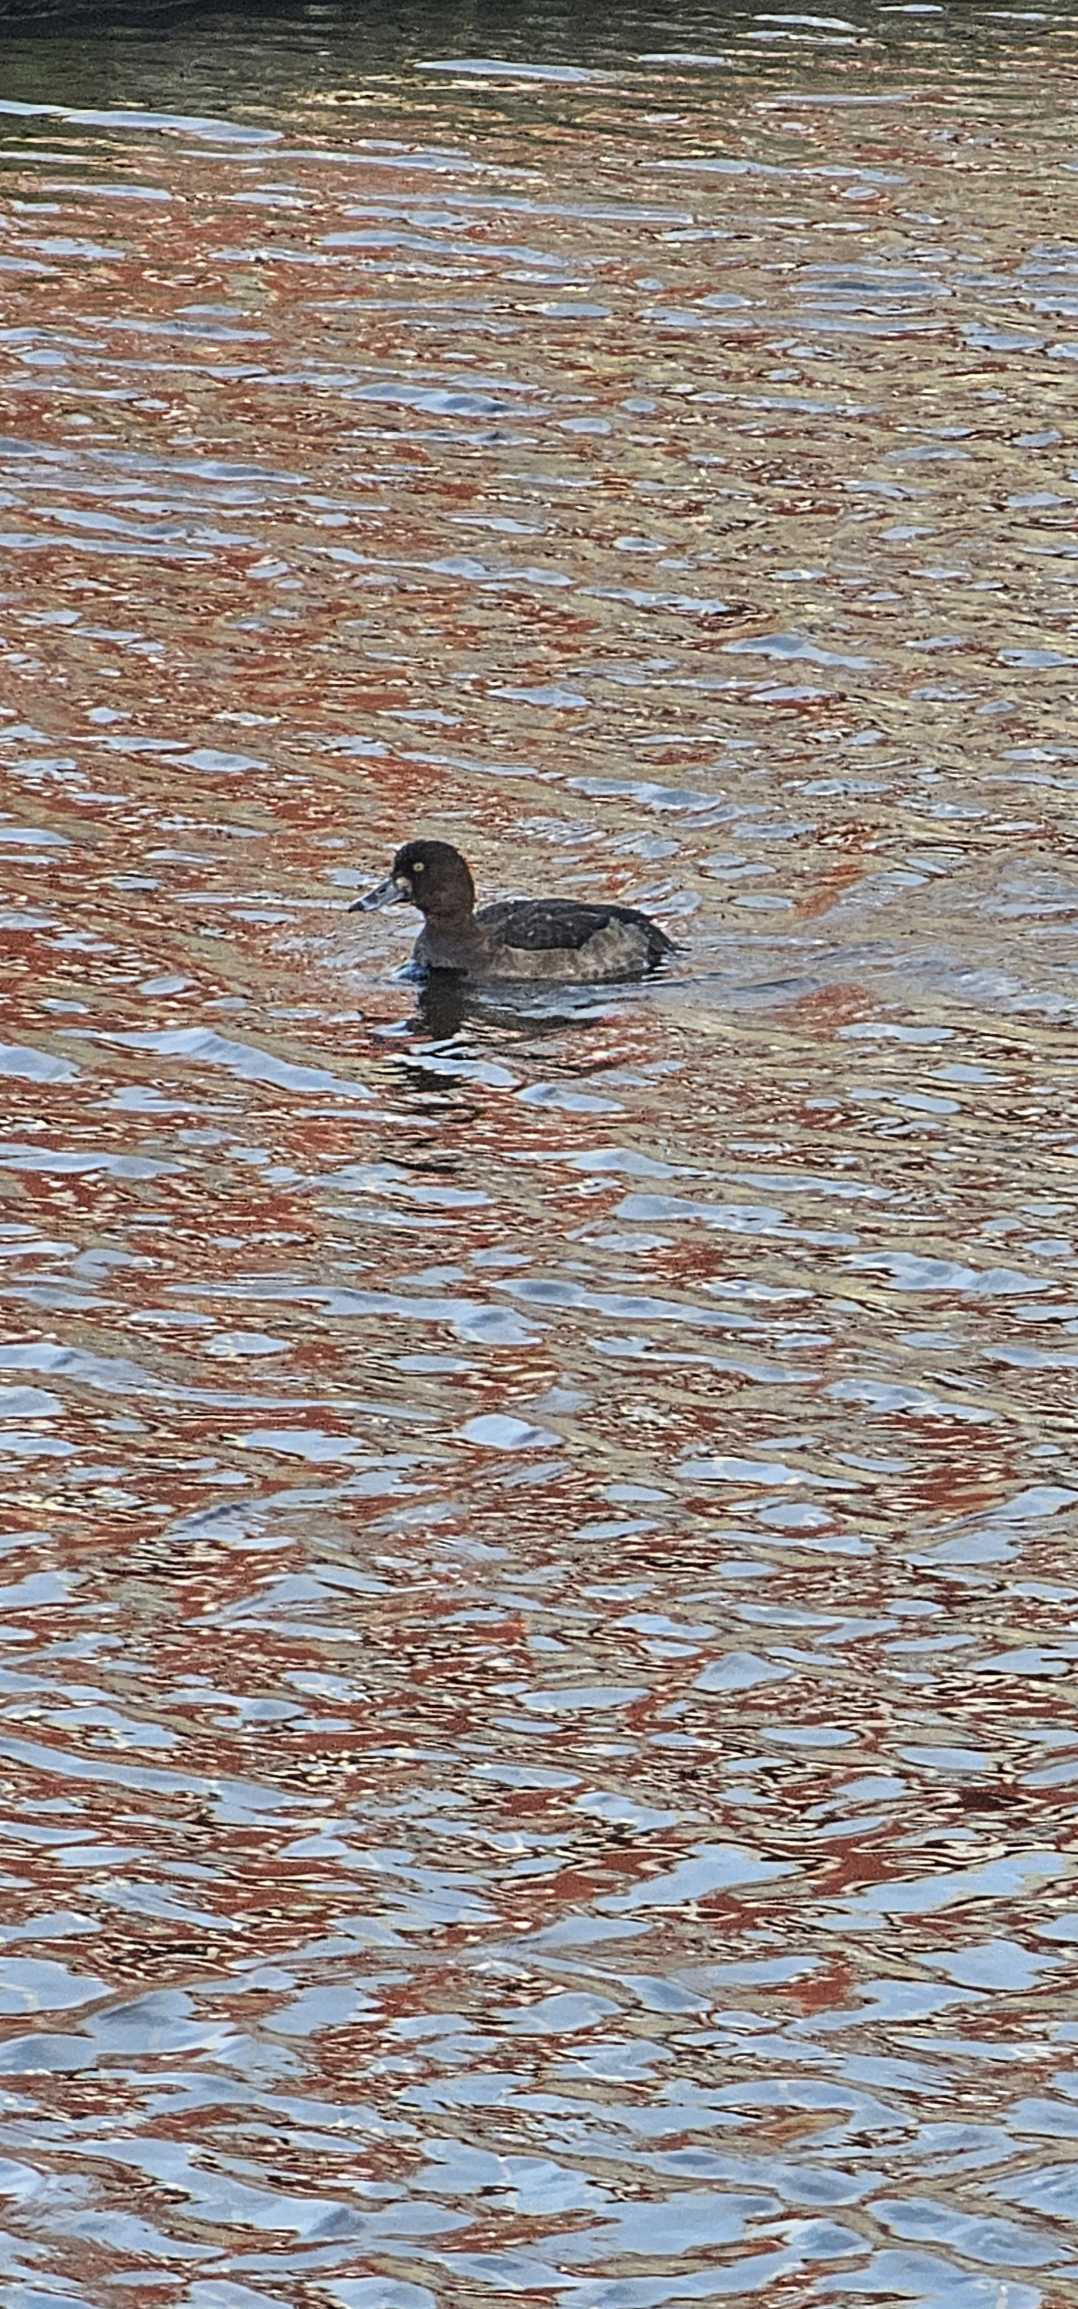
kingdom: Animalia
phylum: Chordata
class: Aves
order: Anseriformes
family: Anatidae
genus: Aythya
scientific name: Aythya fuligula
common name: Troldand
